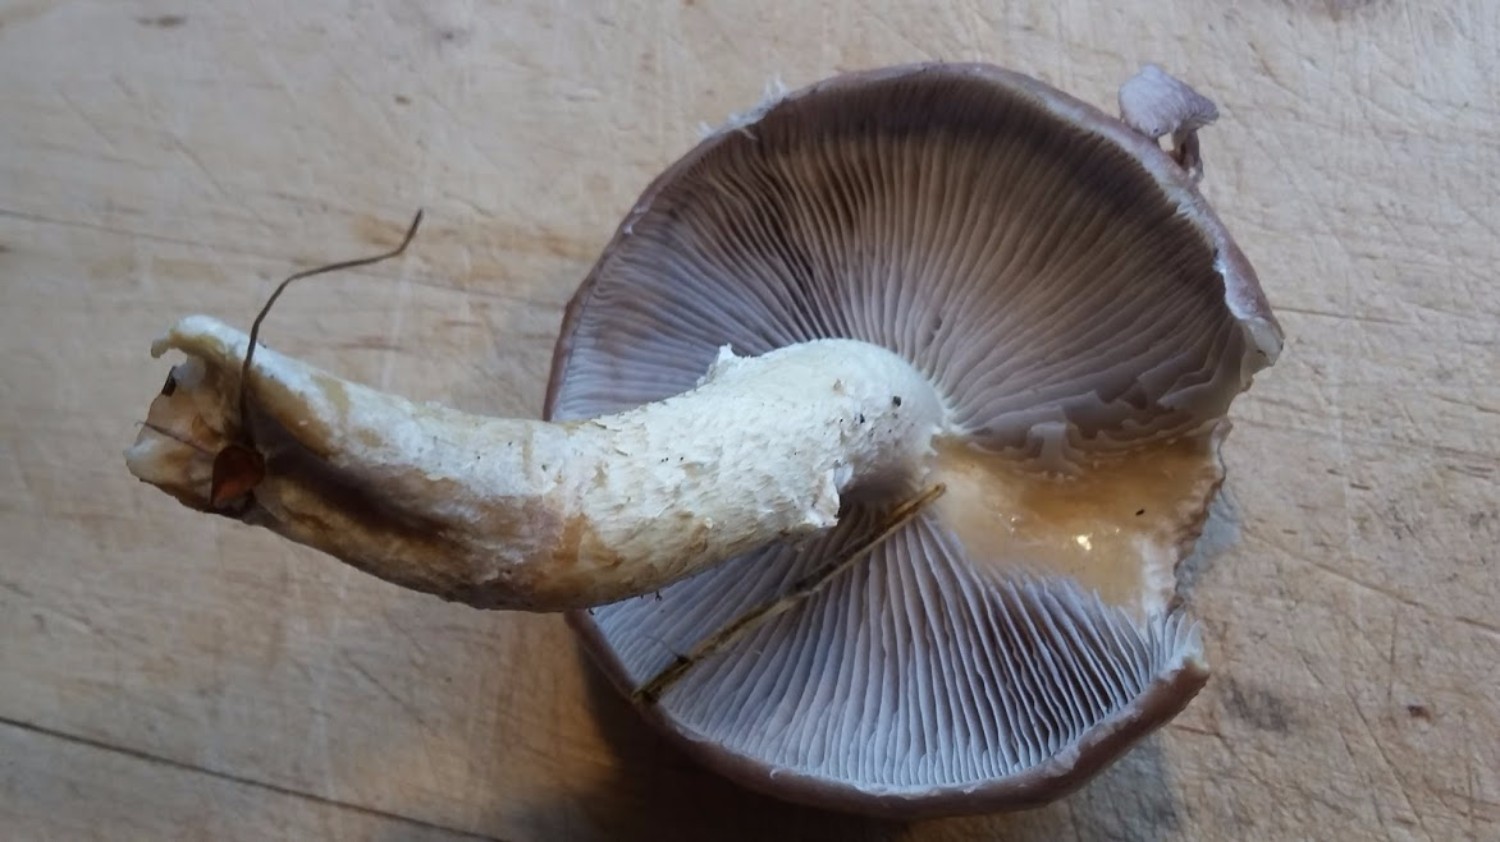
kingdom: Fungi
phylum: Basidiomycota
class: Agaricomycetes
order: Agaricales
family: Strophariaceae
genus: Stropharia
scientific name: Stropharia hornemannii
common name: nordisk bredblad
